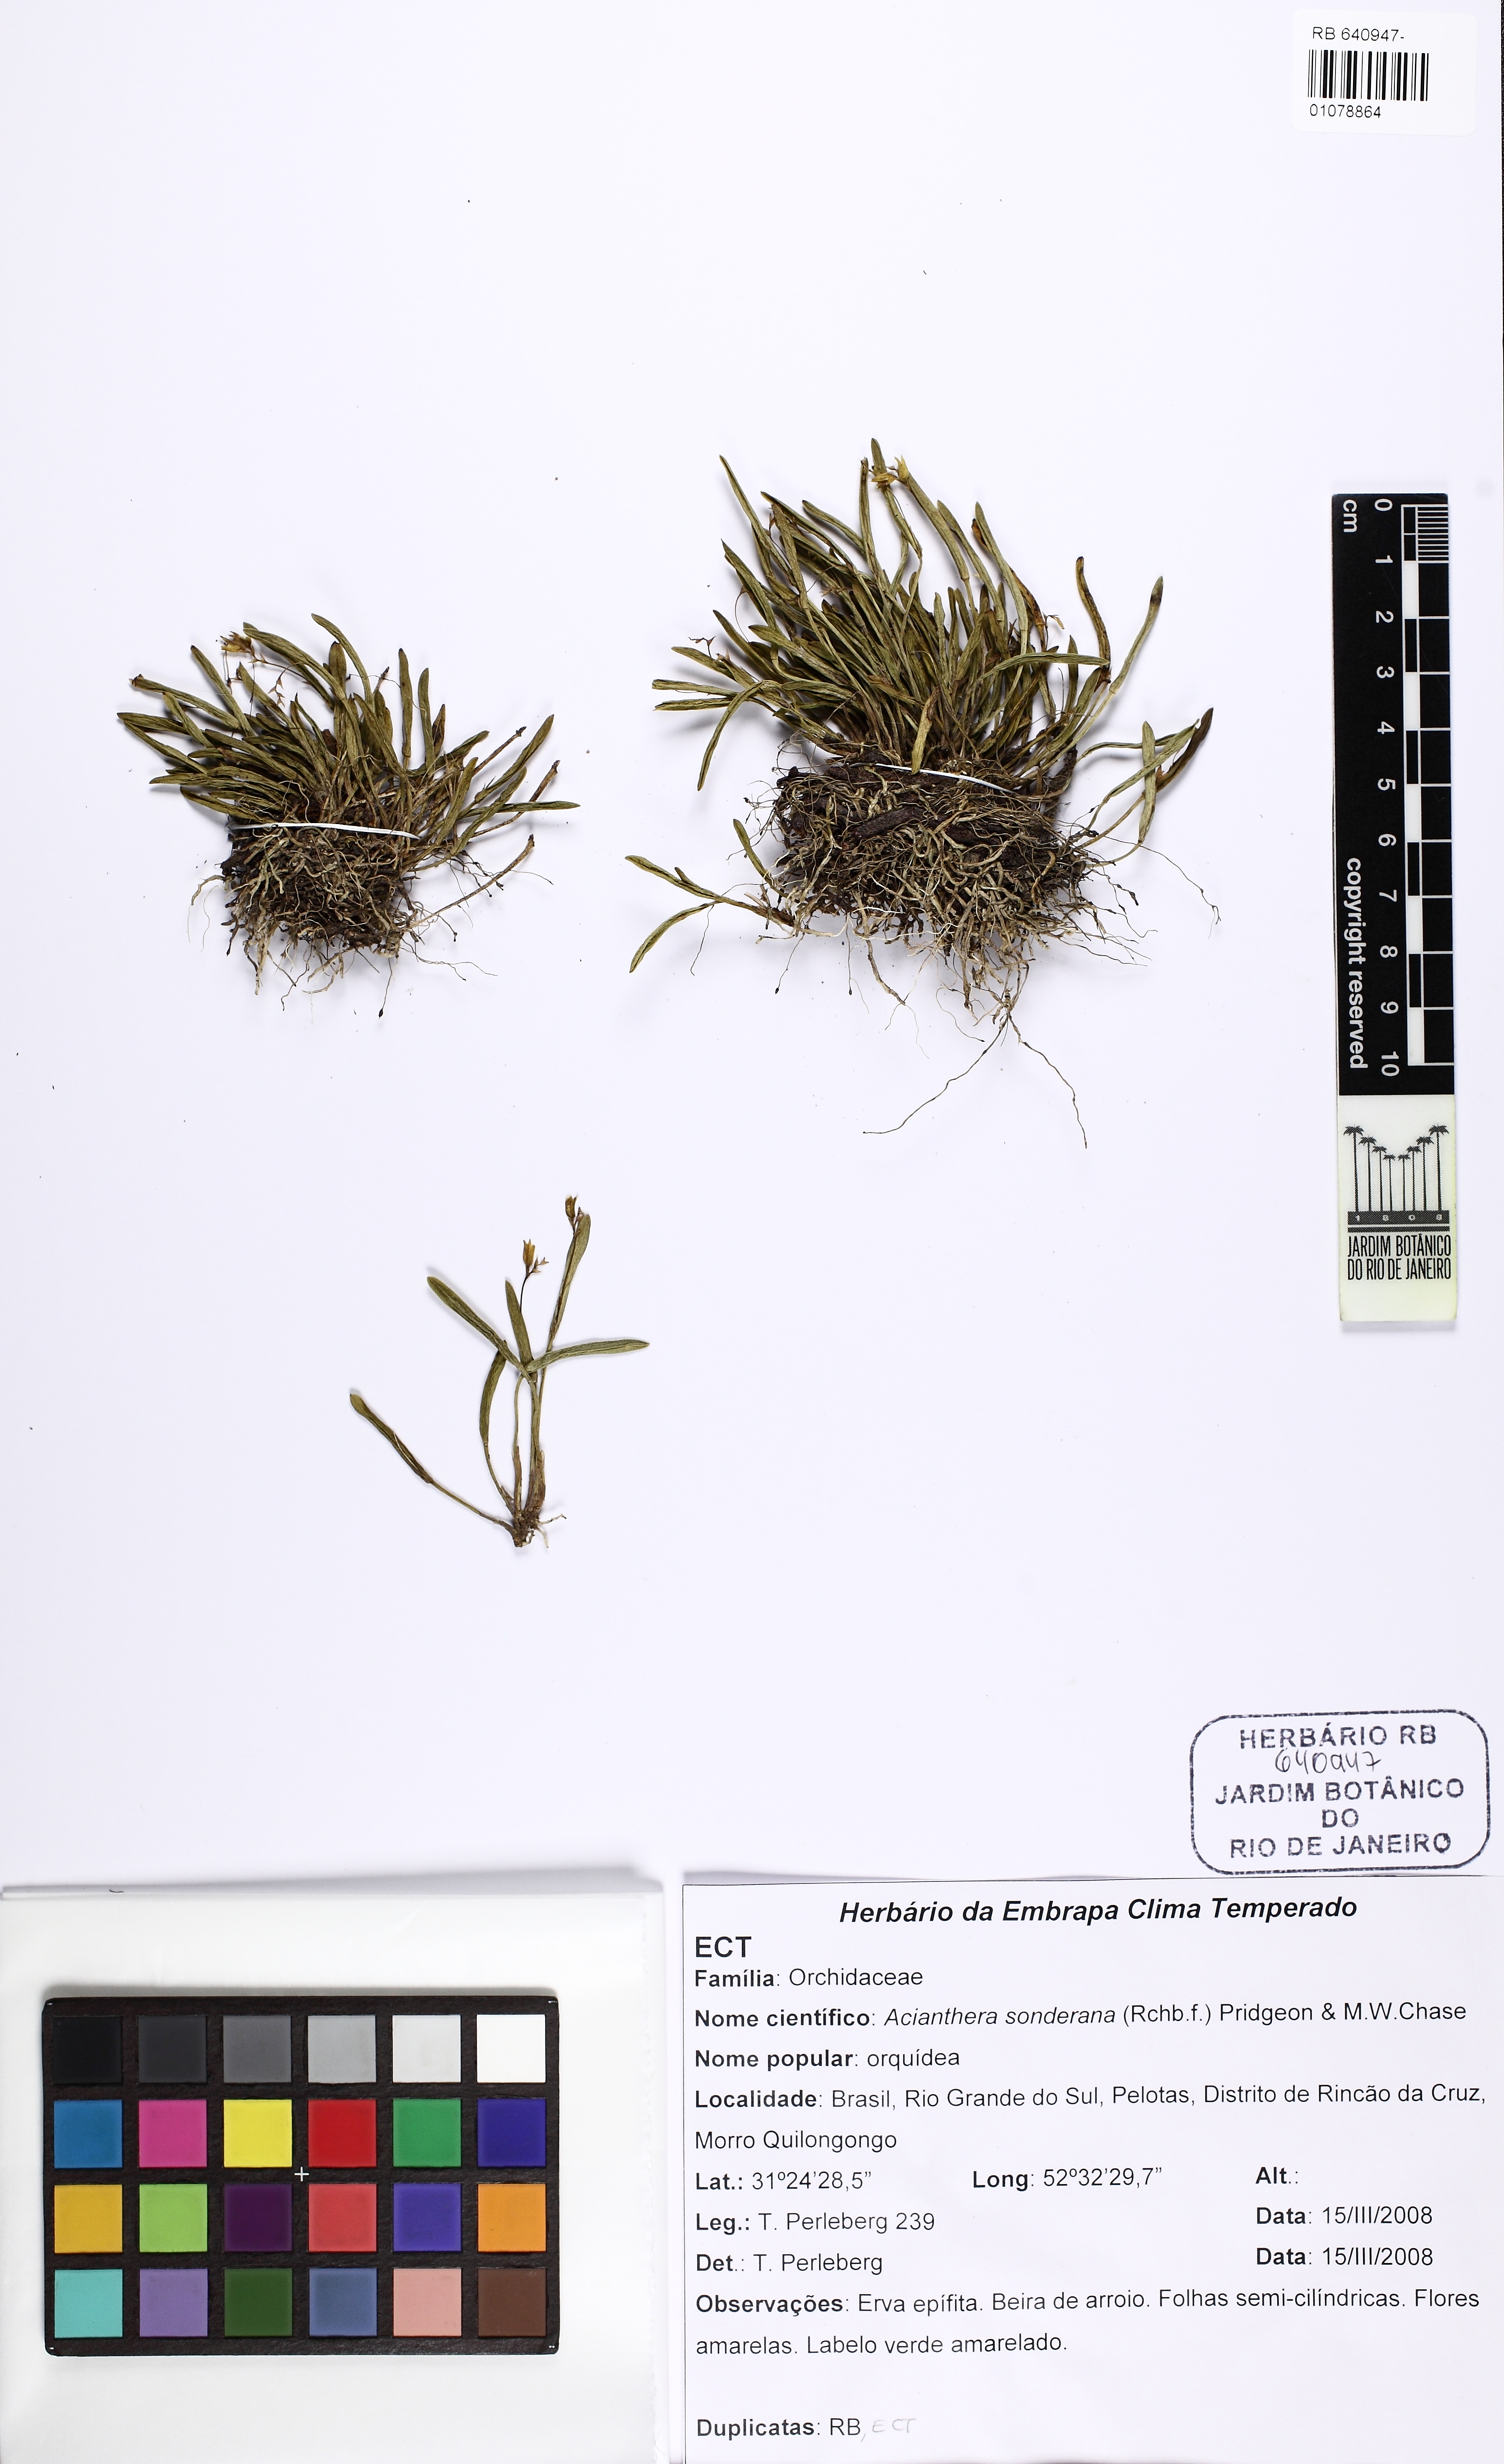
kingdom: Plantae
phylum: Tracheophyta
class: Liliopsida
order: Asparagales
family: Orchidaceae
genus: Acianthera
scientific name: Acianthera sonderiana
